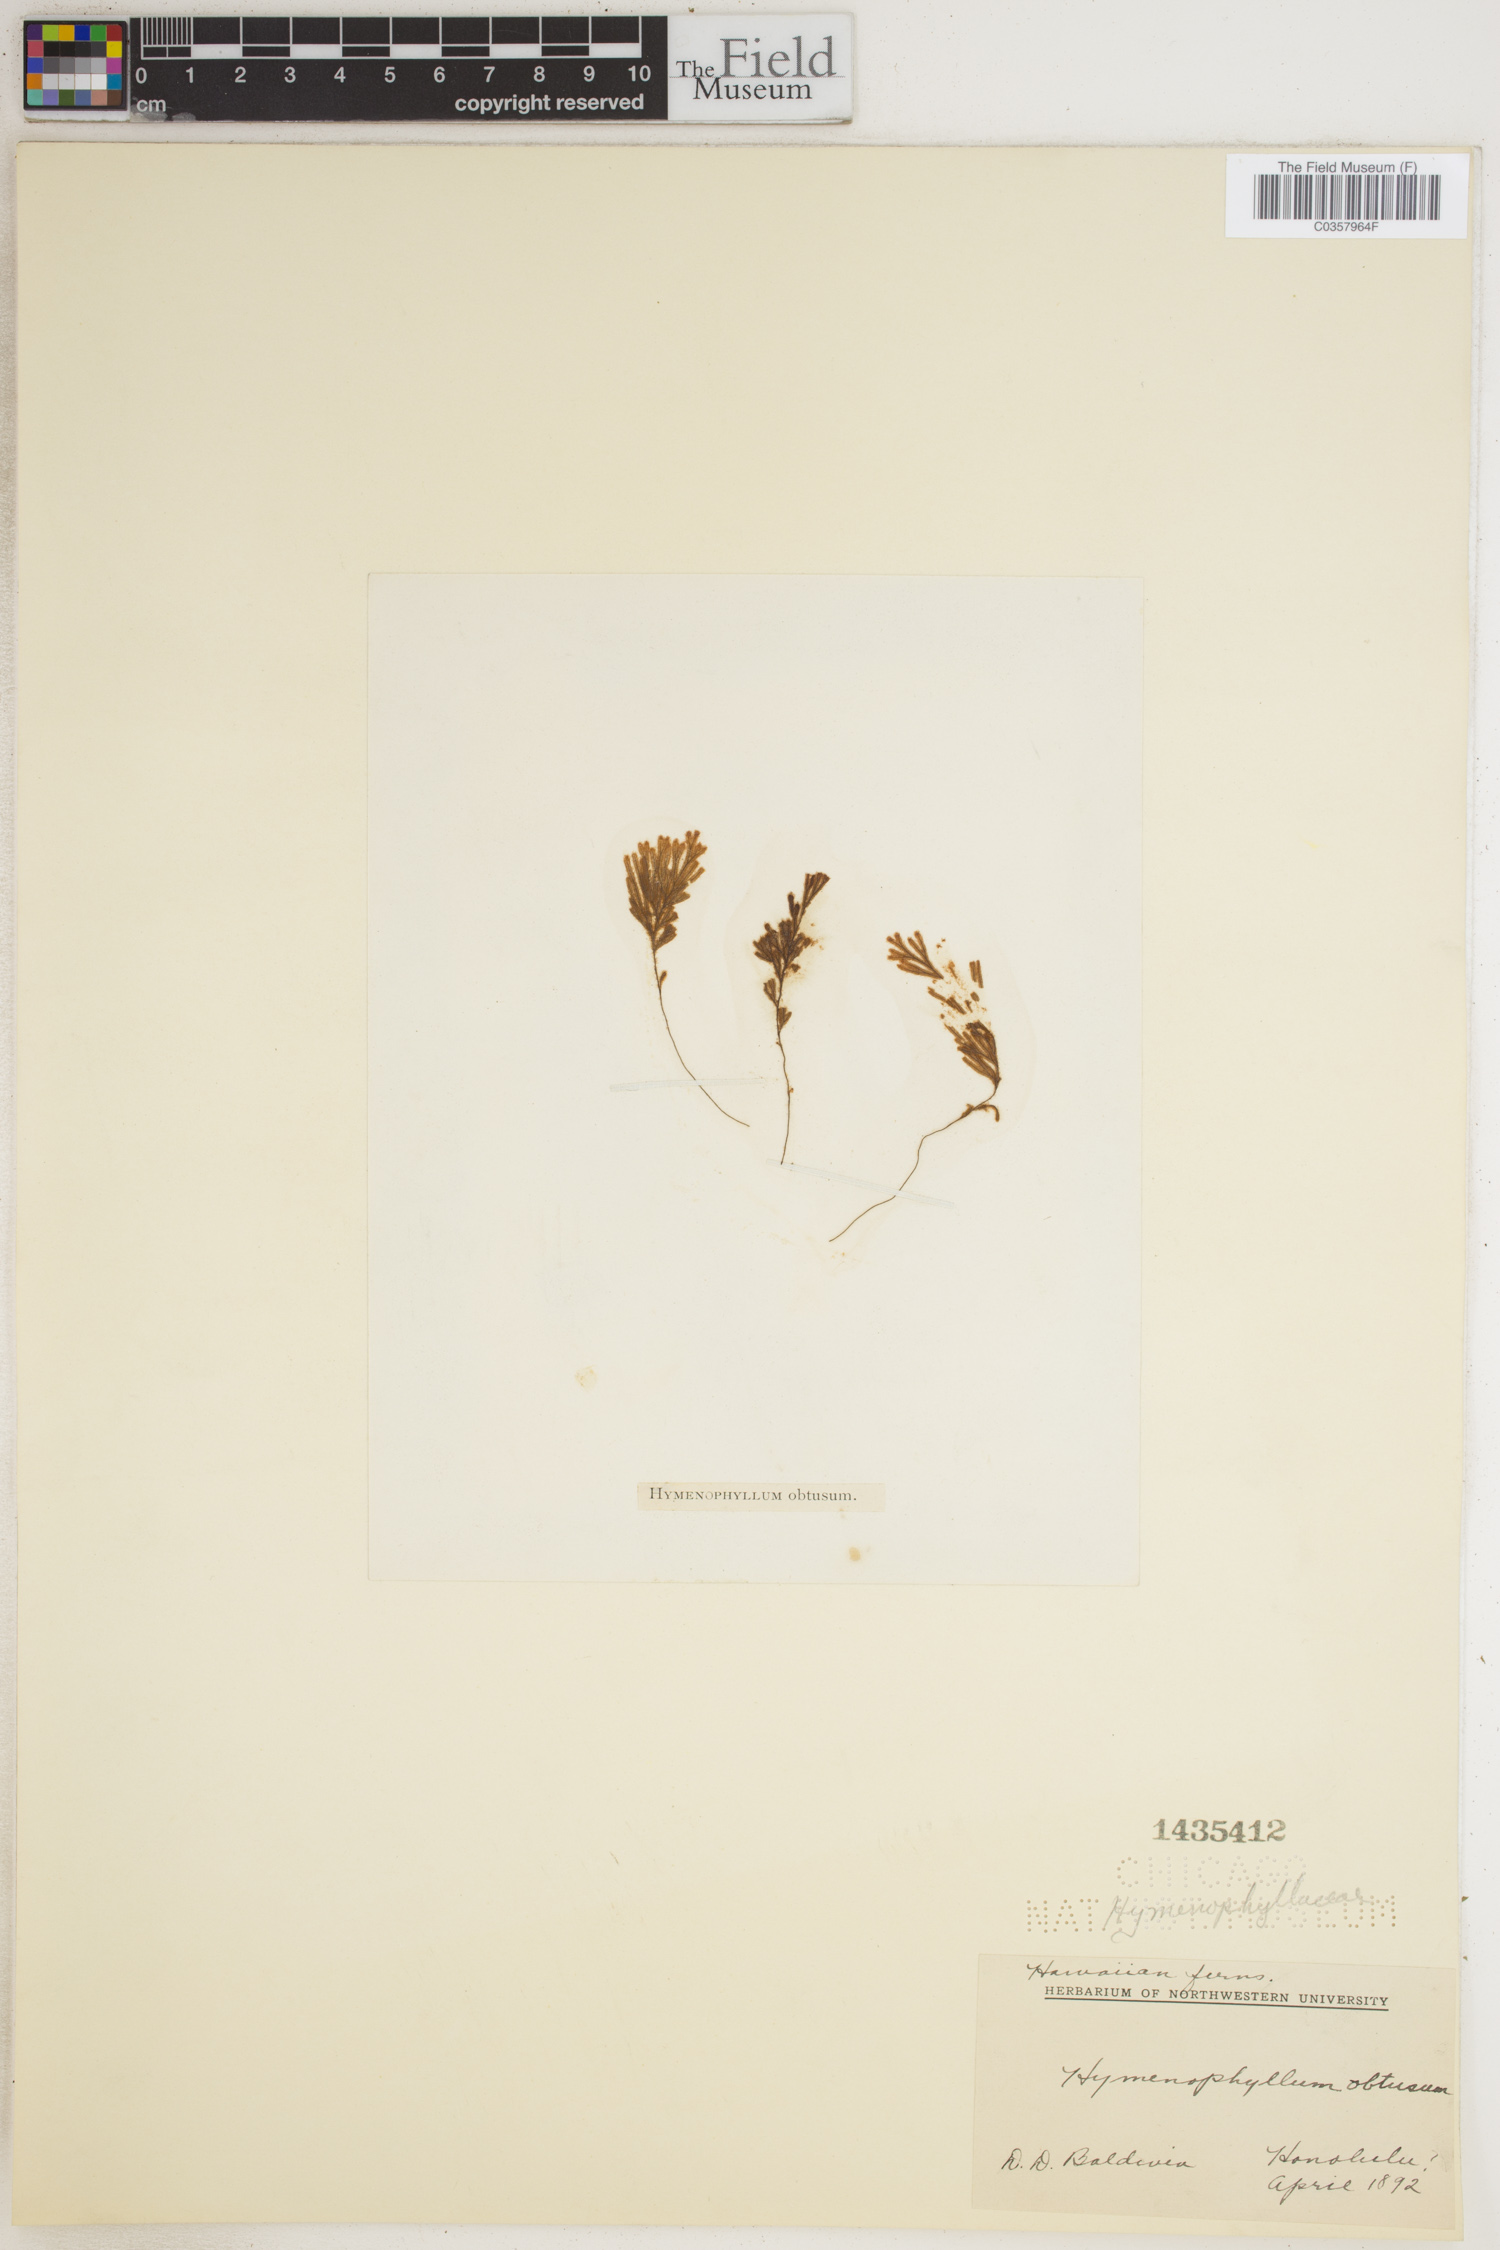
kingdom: Plantae
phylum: Tracheophyta
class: Polypodiopsida
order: Hymenophyllales
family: Hymenophyllaceae
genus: Hymenophyllum
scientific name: Hymenophyllum obtusum
